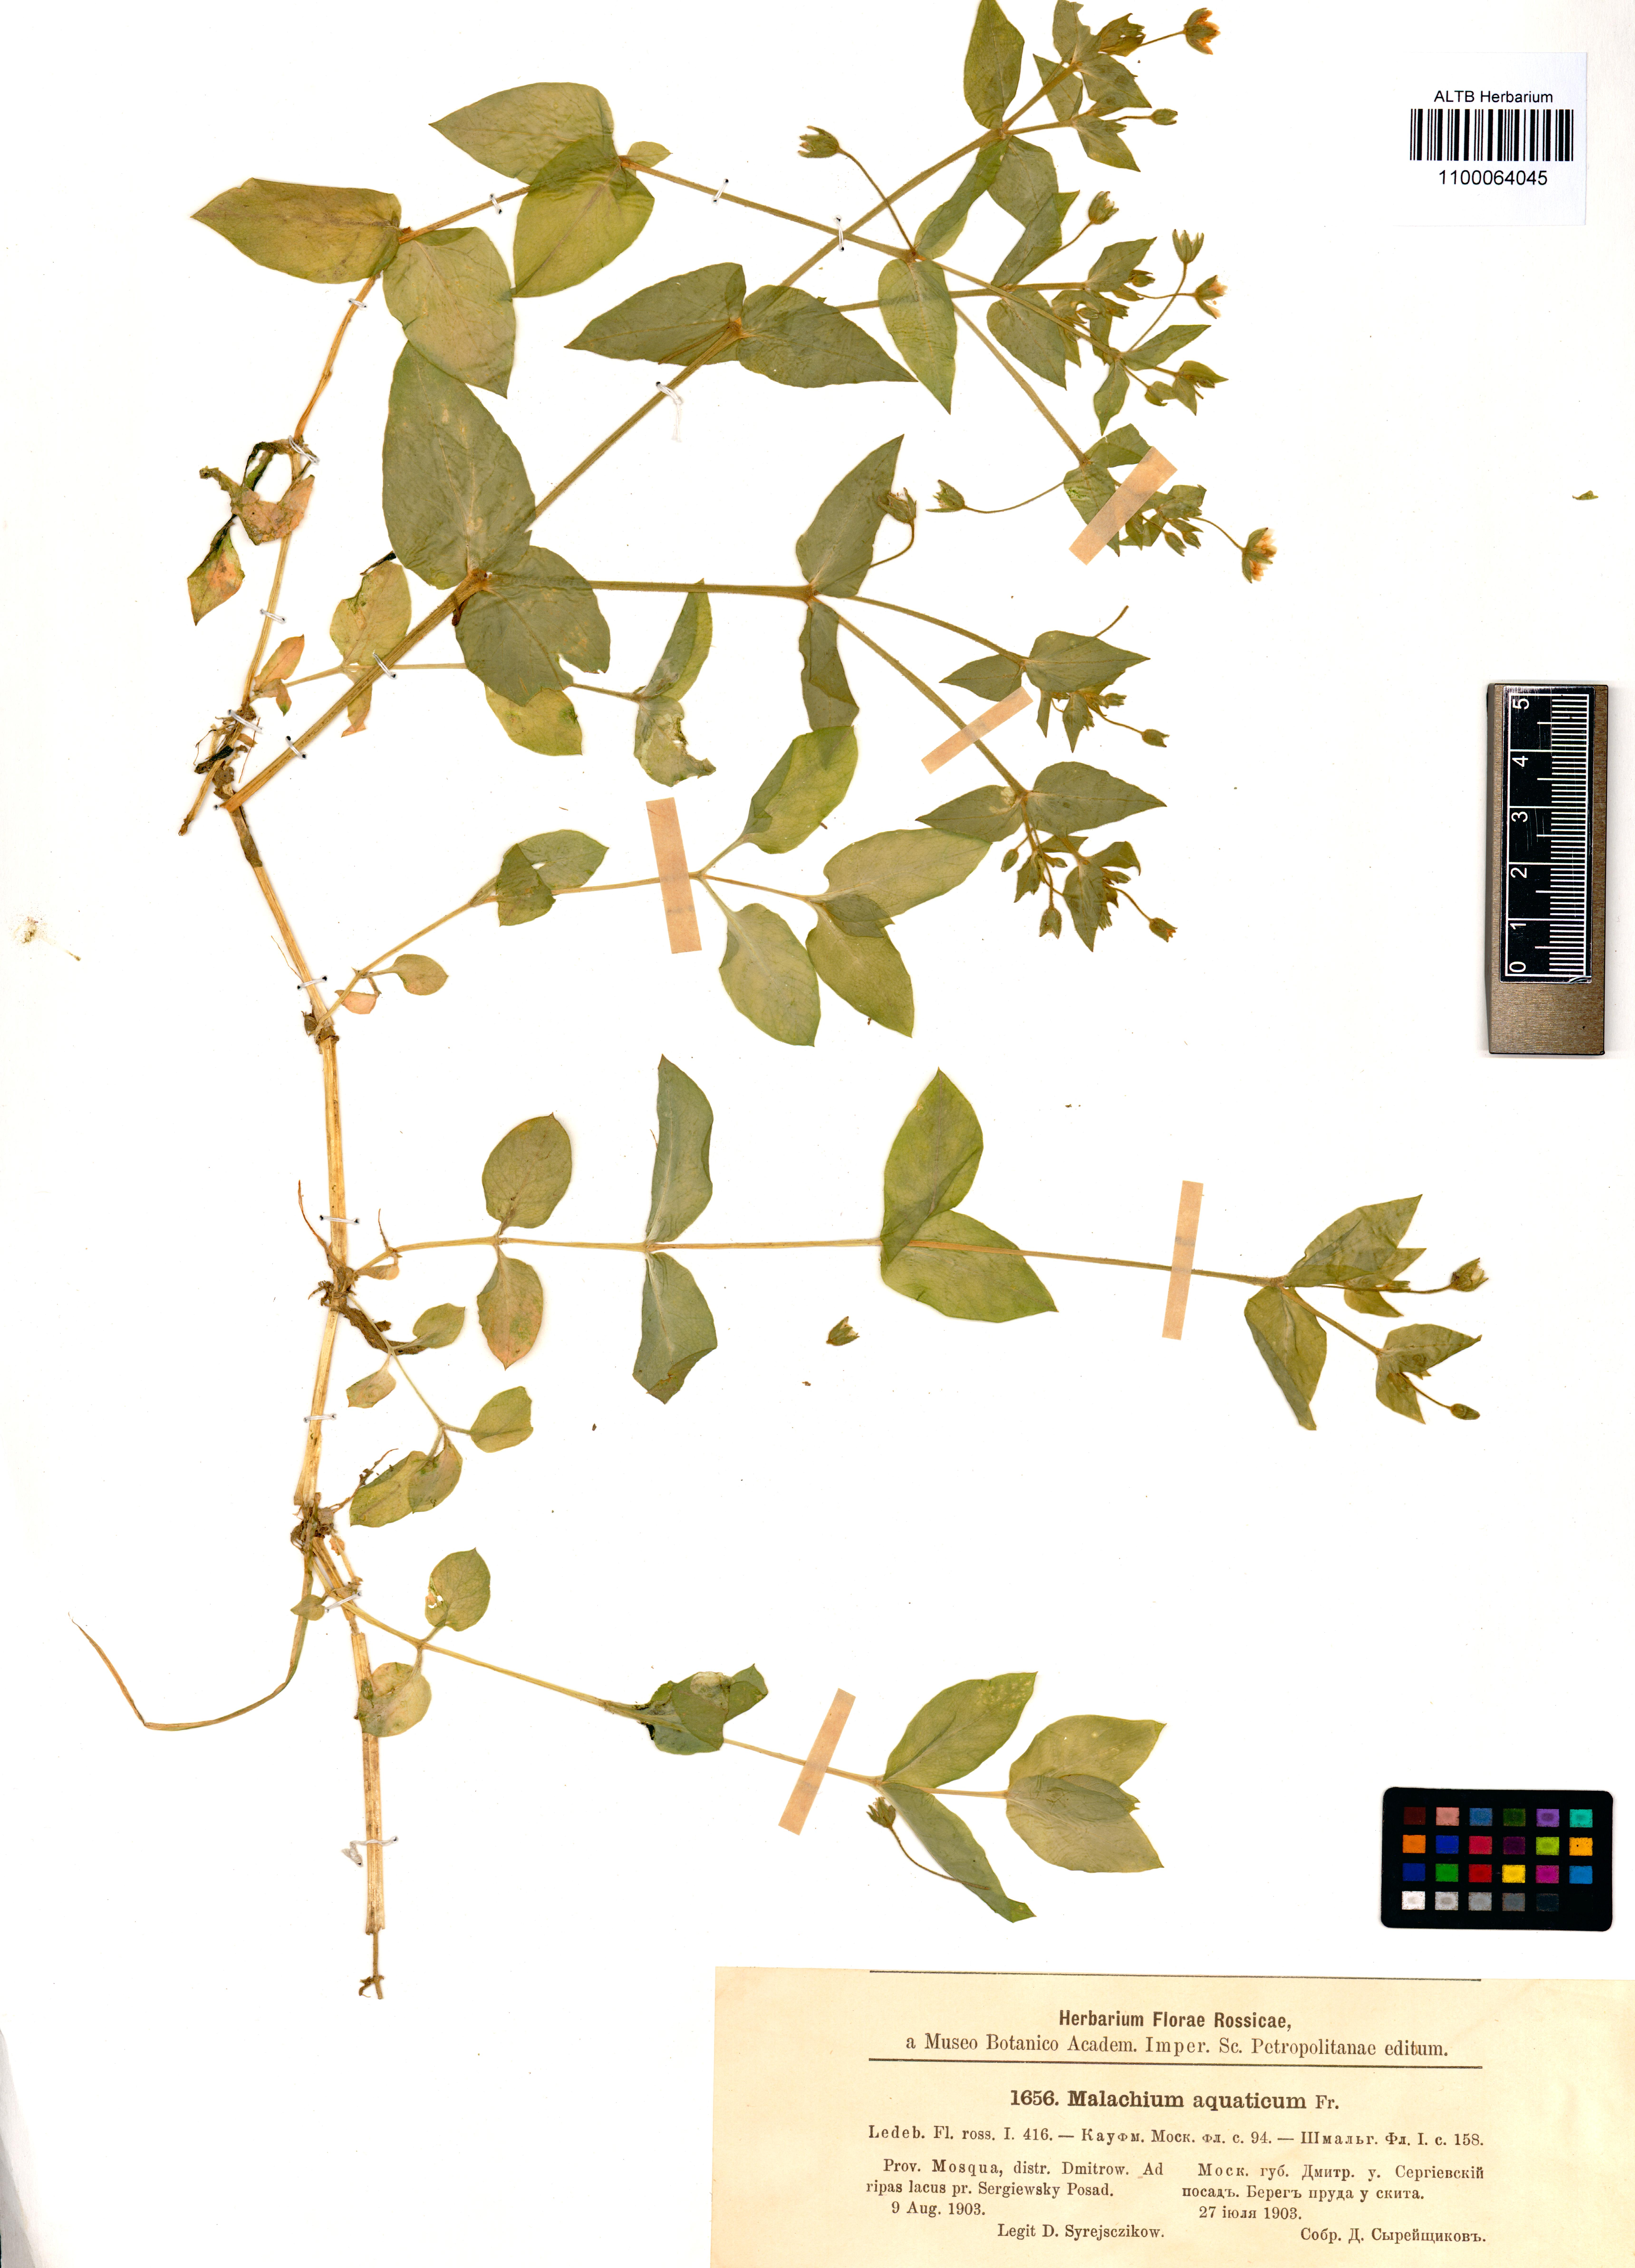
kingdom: Plantae
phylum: Tracheophyta
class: Magnoliopsida
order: Caryophyllales
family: Caryophyllaceae
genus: Stellaria
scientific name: Stellaria aquatica
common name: Water chickweed
